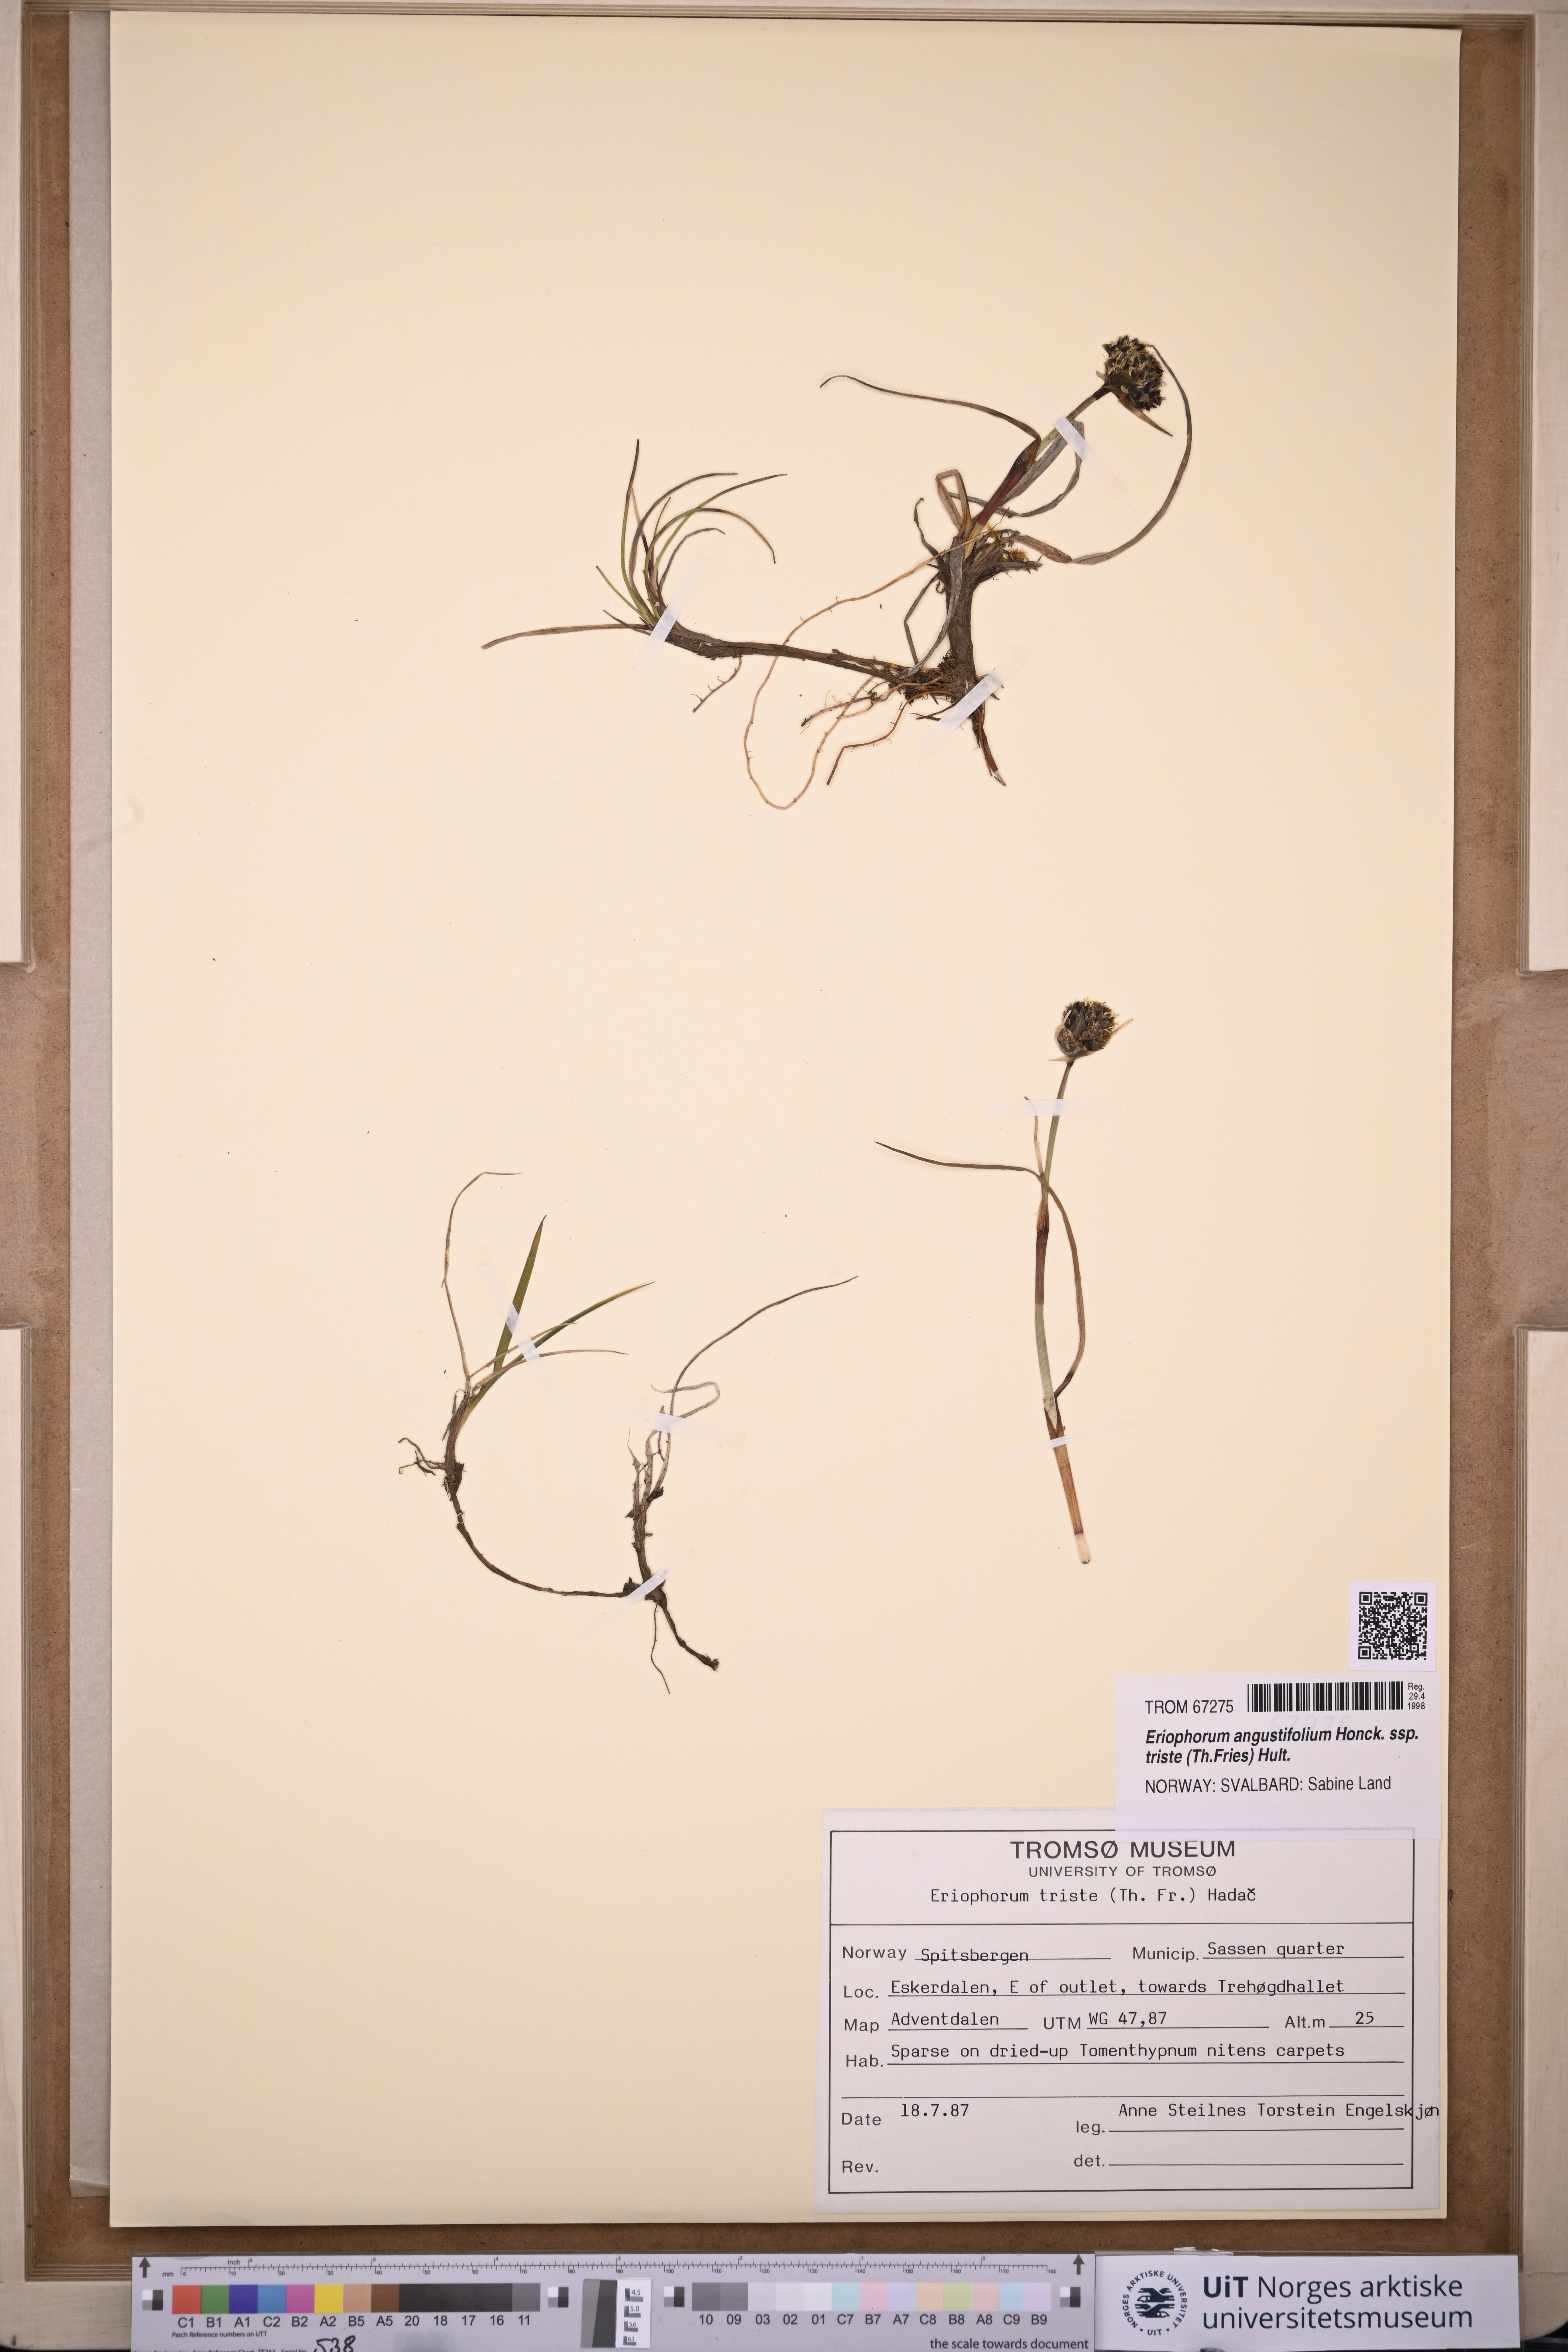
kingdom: Plantae
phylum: Tracheophyta
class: Liliopsida
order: Poales
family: Cyperaceae
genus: Eriophorum
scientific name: Eriophorum triste
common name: Tall cottongrass
